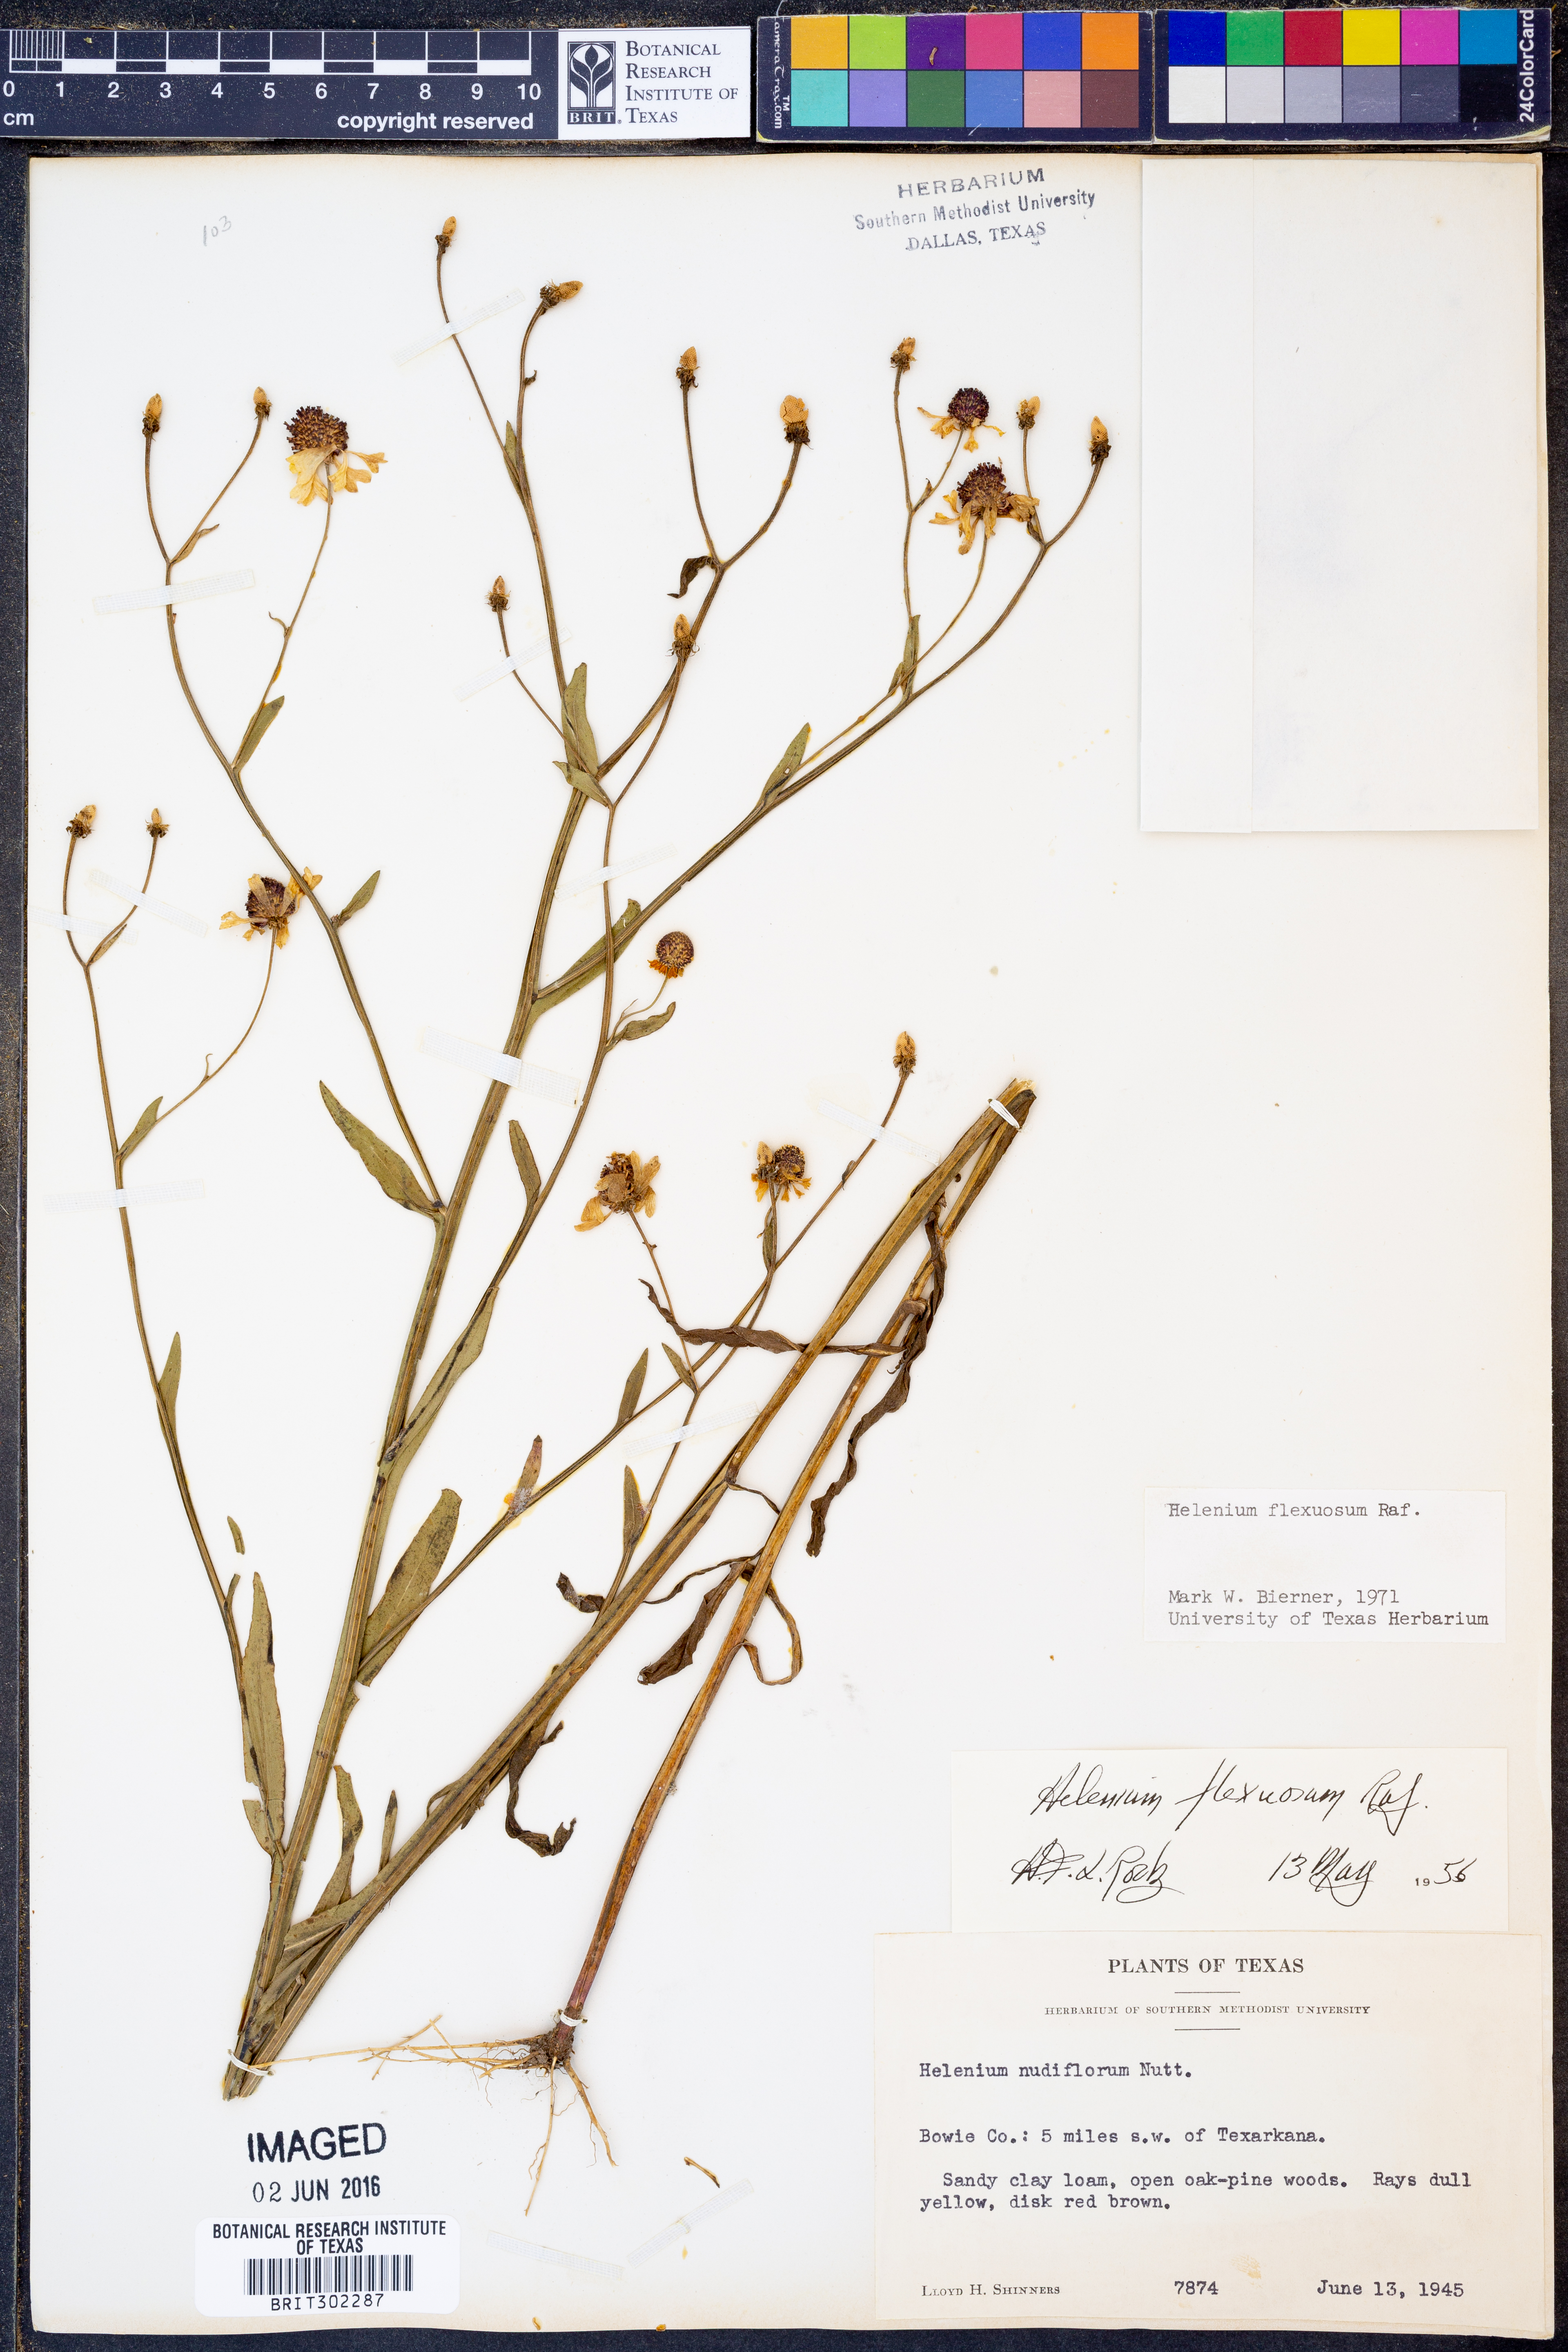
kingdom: Plantae
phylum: Tracheophyta
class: Magnoliopsida
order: Asterales
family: Asteraceae
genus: Helenium
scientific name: Helenium flexuosum
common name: Naked-flowered sneezeweed
